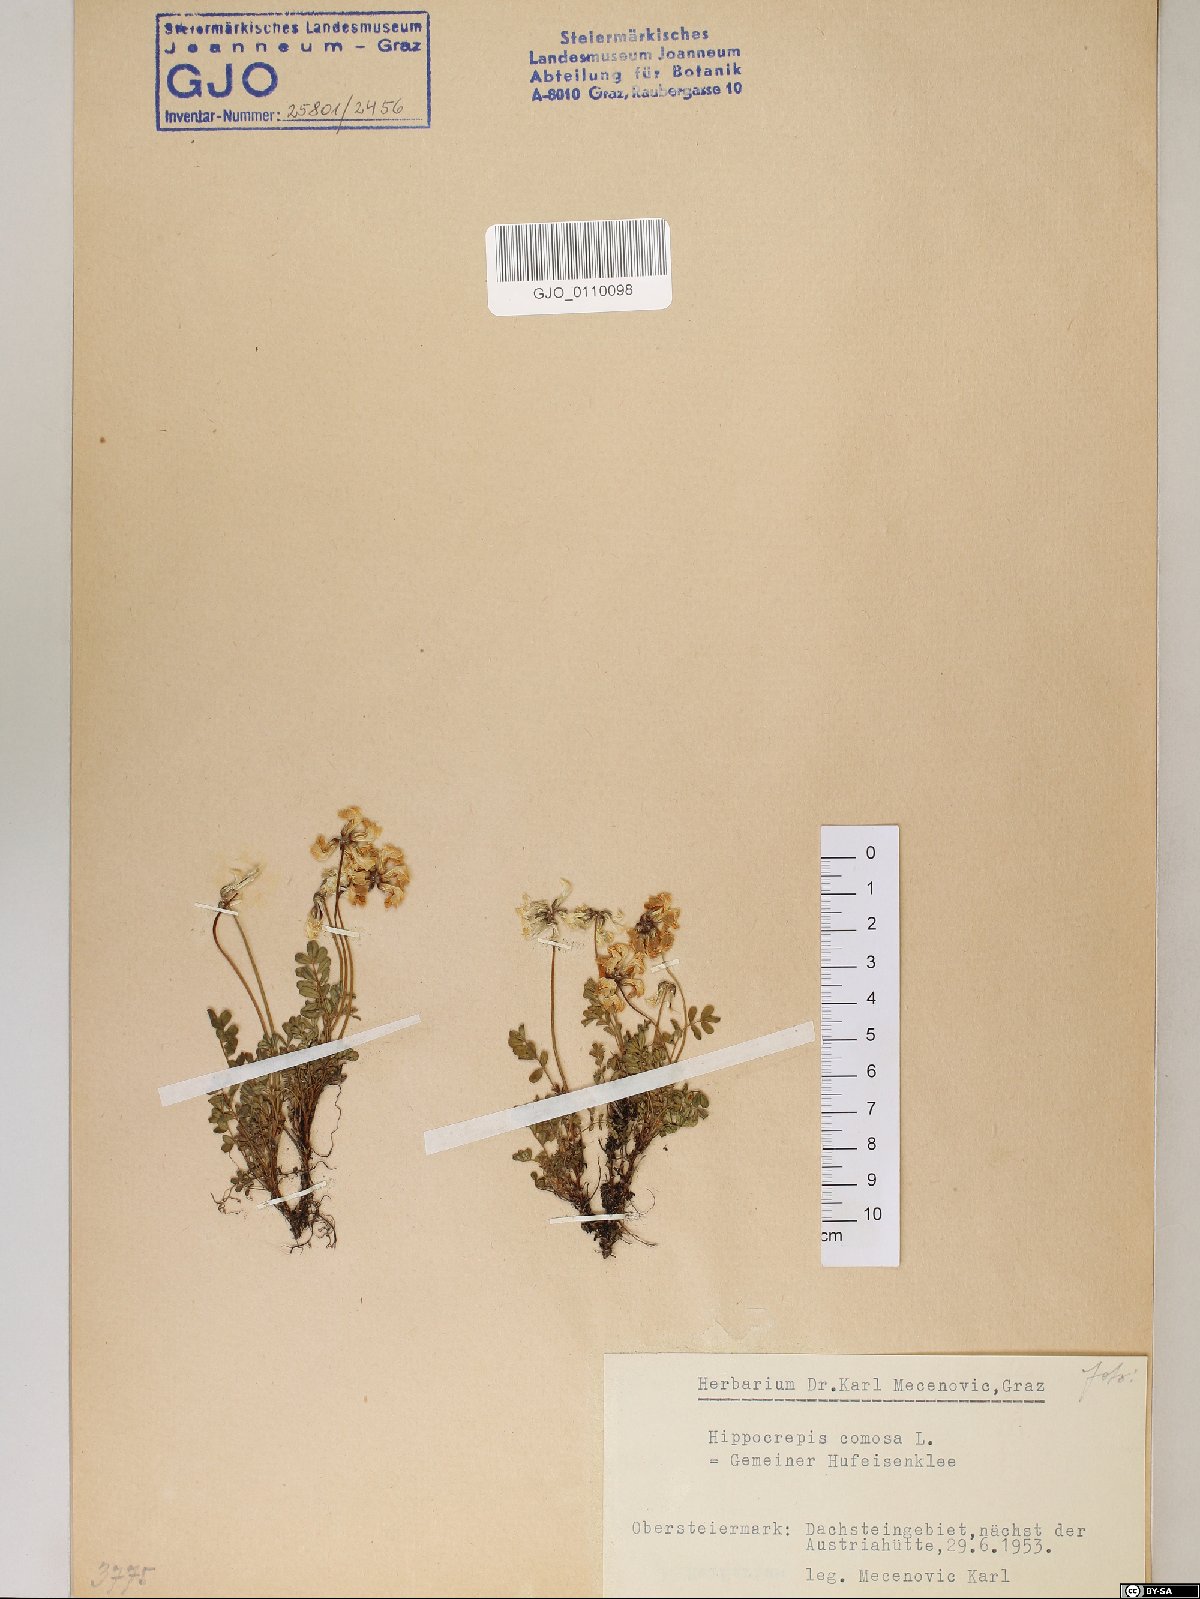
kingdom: Plantae
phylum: Tracheophyta
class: Magnoliopsida
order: Fabales
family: Fabaceae
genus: Hippocrepis
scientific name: Hippocrepis comosa
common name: Horseshoe vetch
